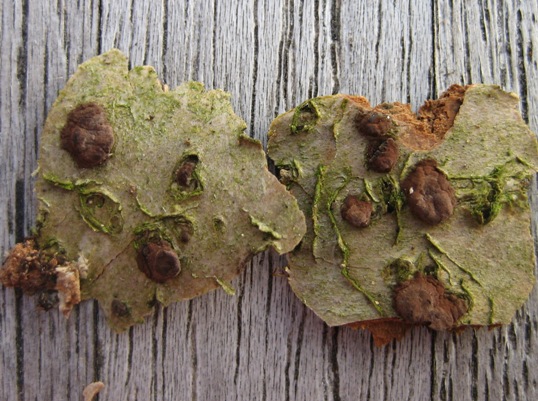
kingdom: Fungi
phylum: Ascomycota
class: Sordariomycetes
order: Xylariales
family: Hypoxylaceae
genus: Hypoxylon
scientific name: Hypoxylon fuscum
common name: kegleformet kulbær
